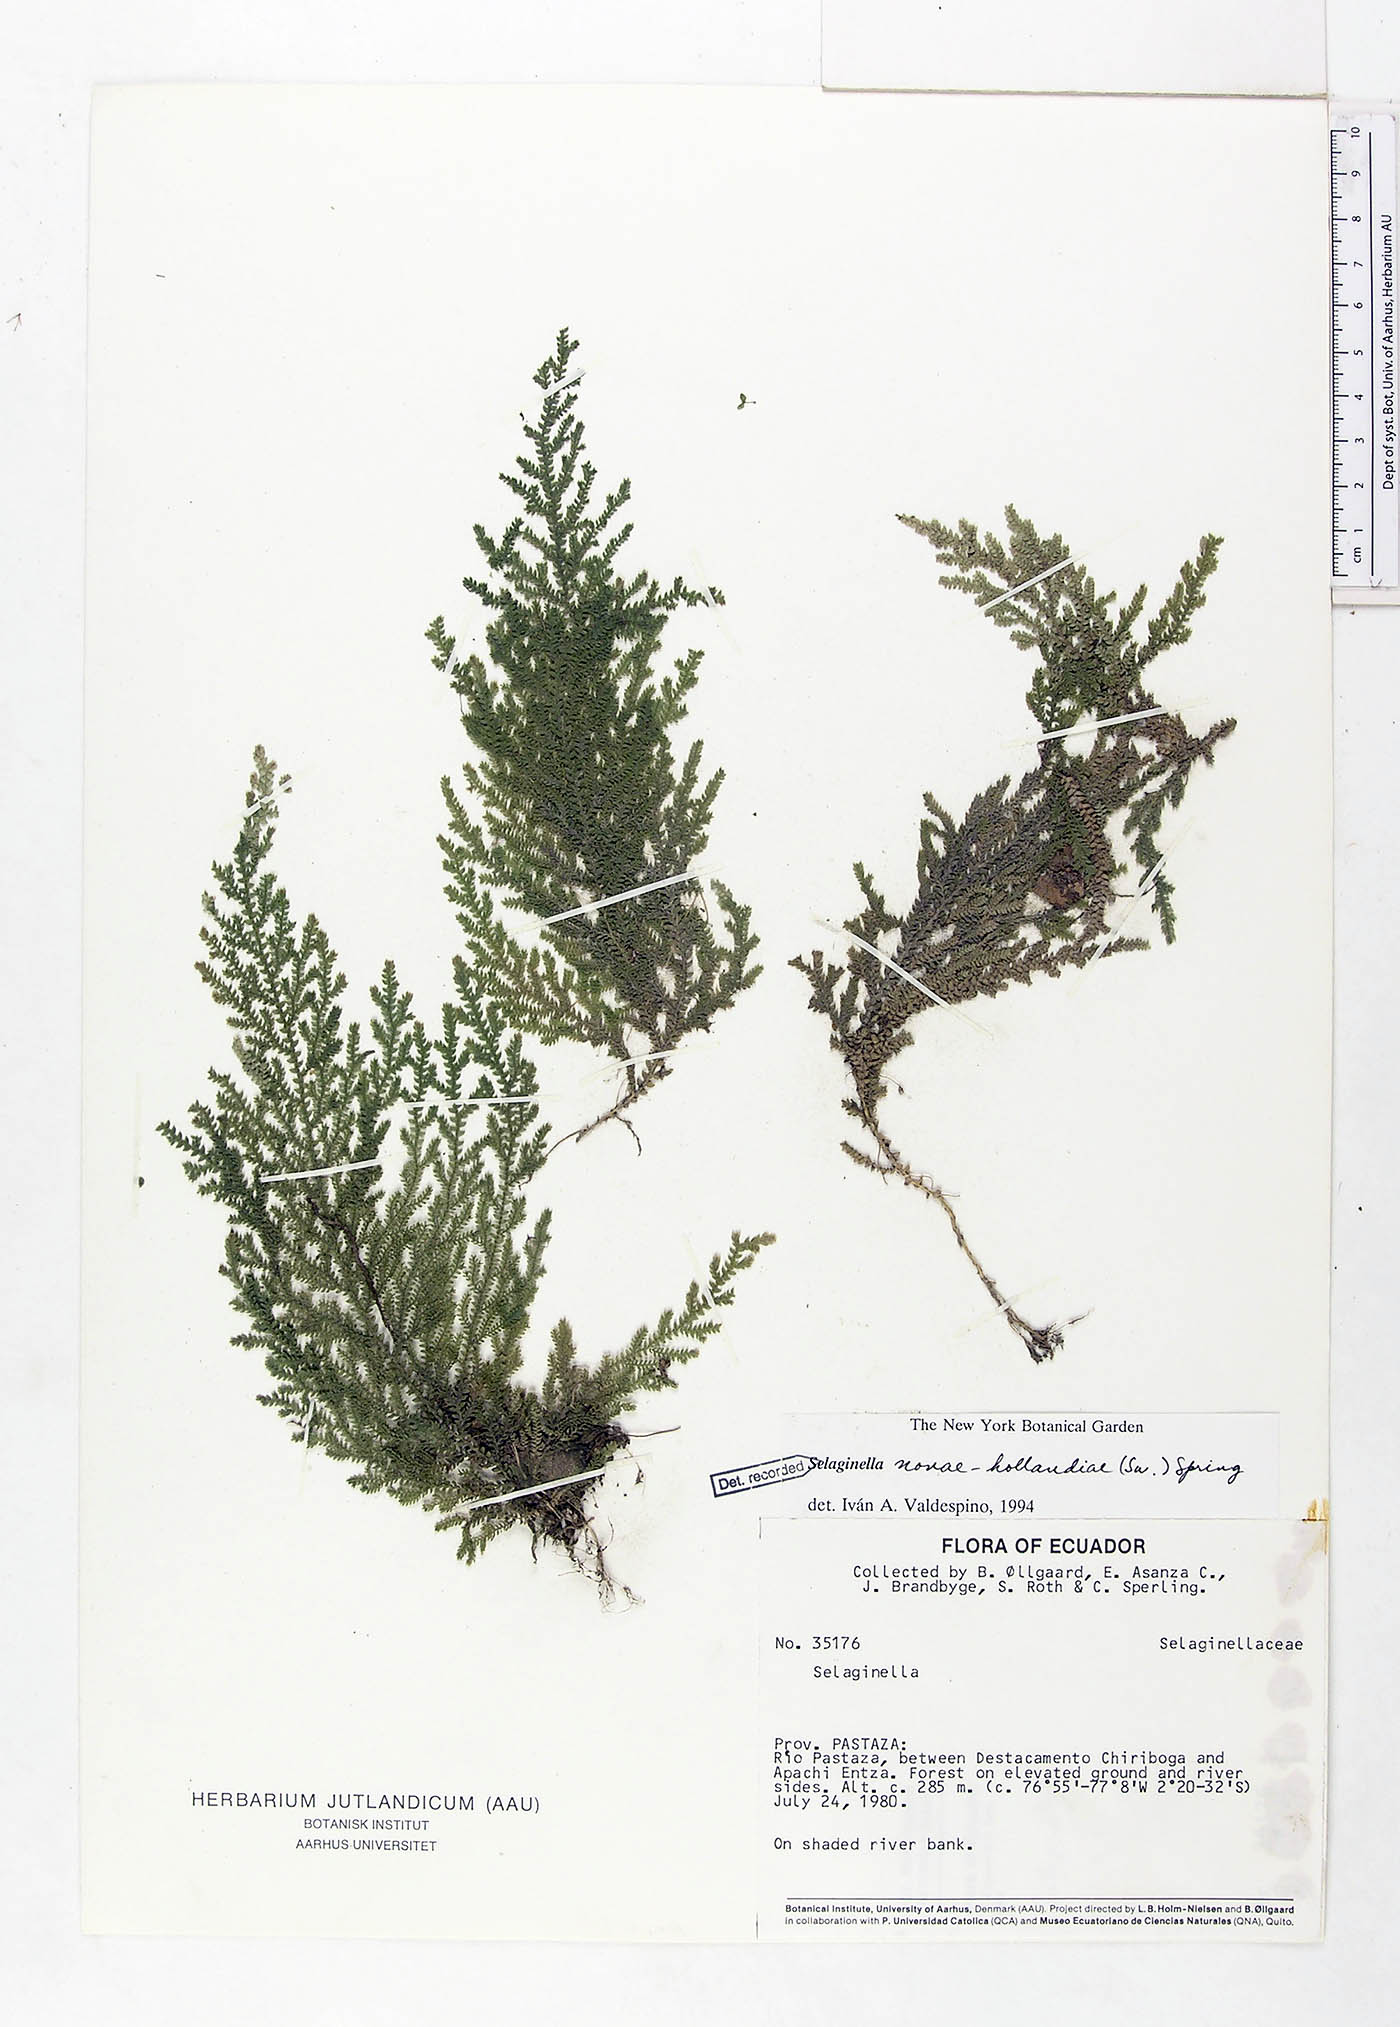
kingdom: Plantae
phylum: Tracheophyta
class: Lycopodiopsida
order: Selaginellales
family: Selaginellaceae
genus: Selaginella
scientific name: Selaginella novae-hollandiae
